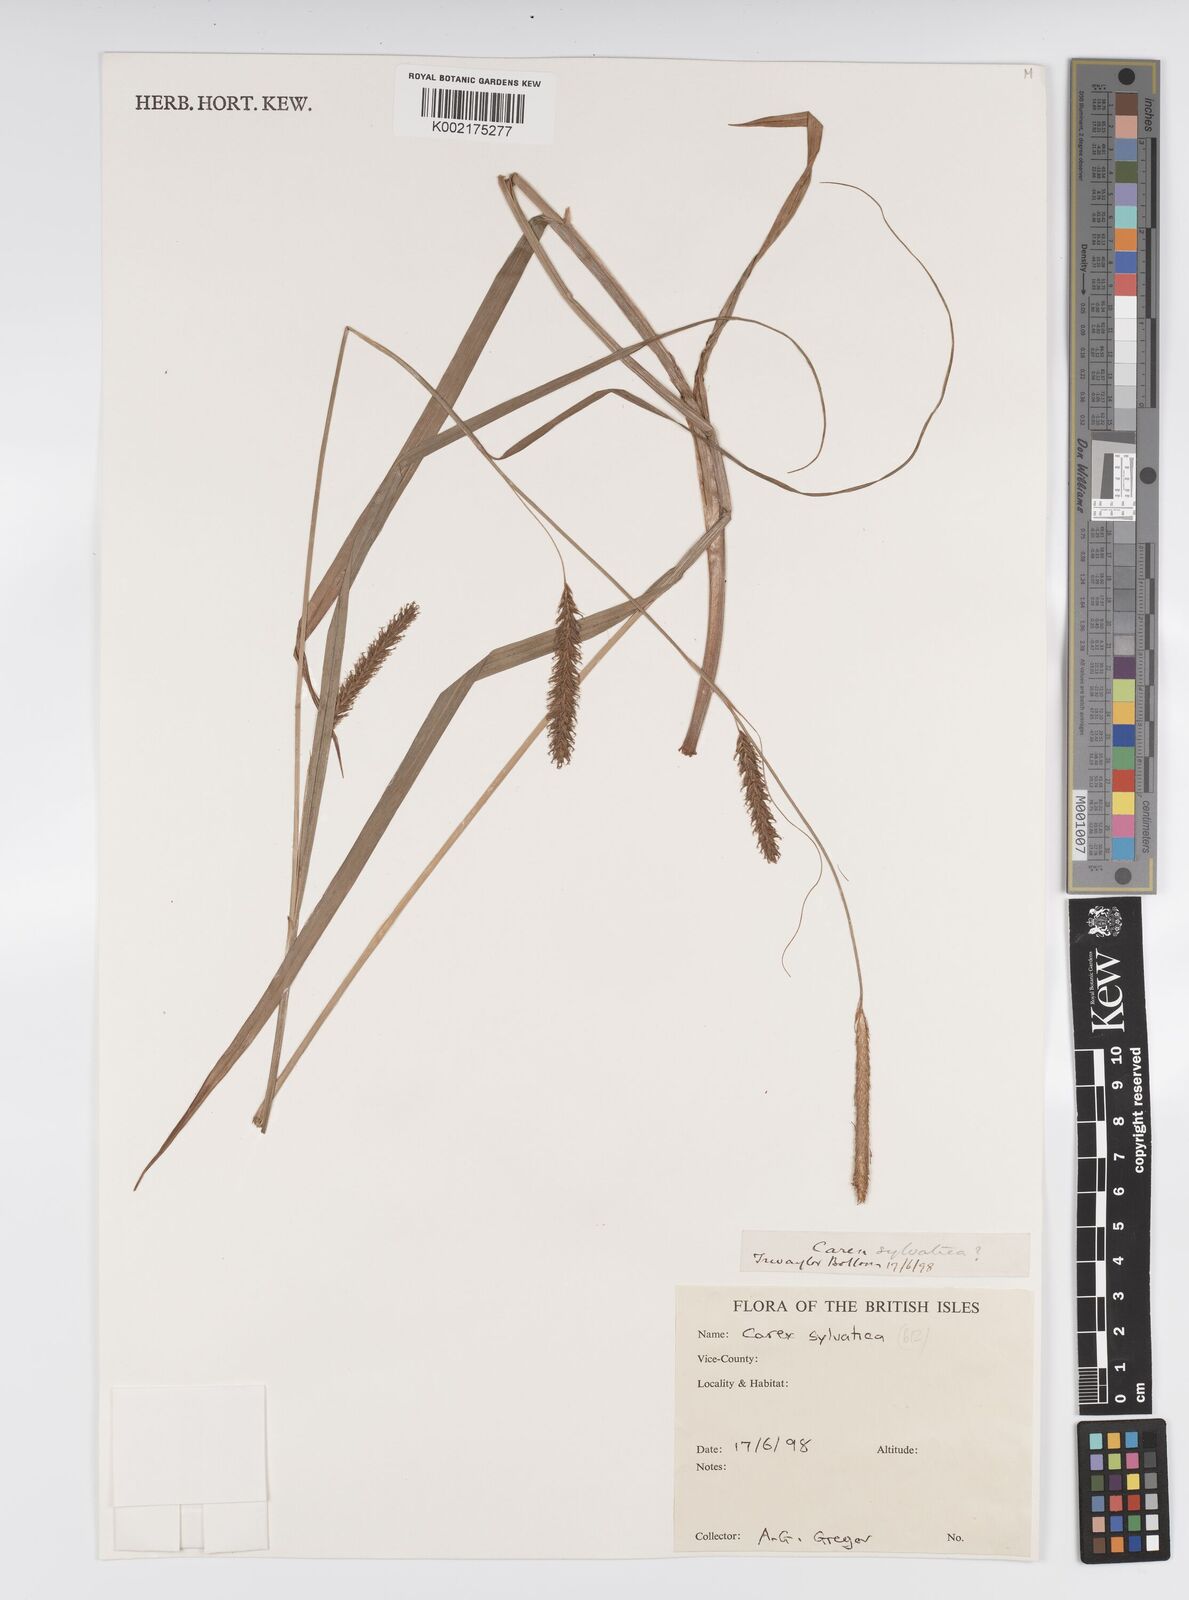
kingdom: Plantae
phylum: Tracheophyta
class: Liliopsida
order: Poales
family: Cyperaceae
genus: Carex
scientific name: Carex sylvatica
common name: Wood-sedge
